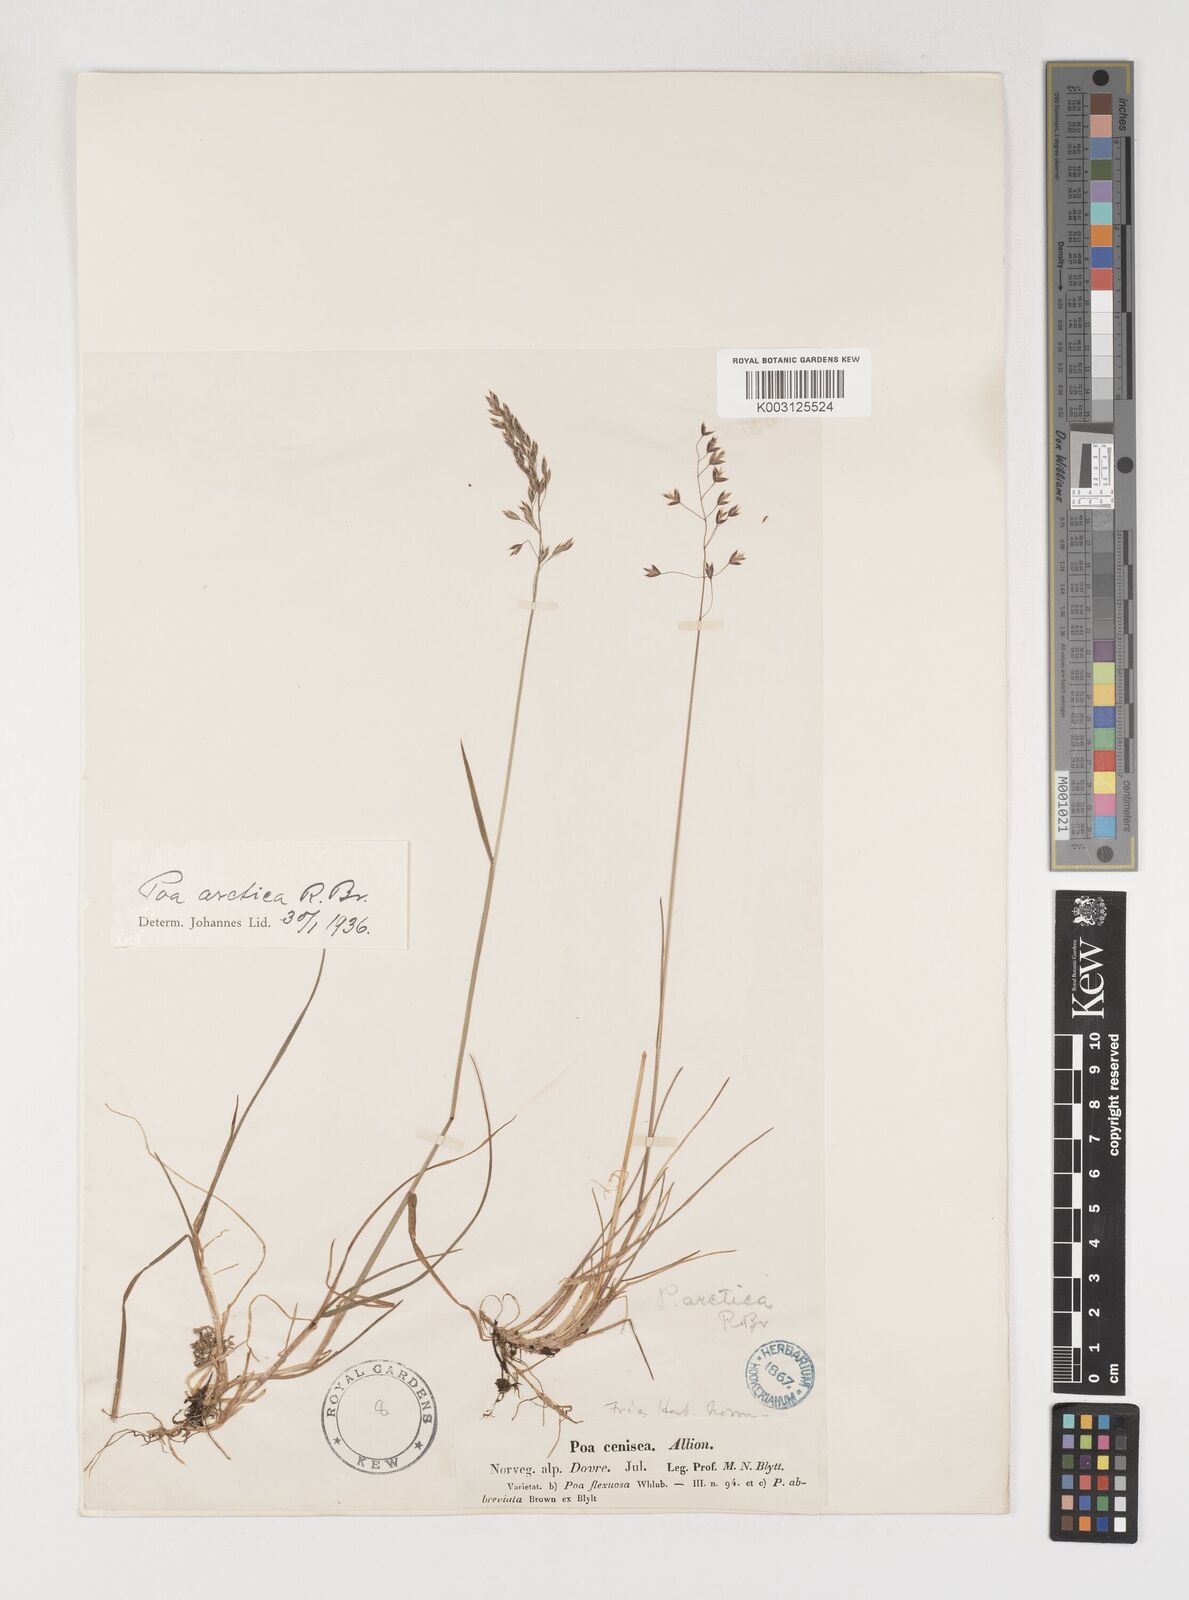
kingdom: Plantae
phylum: Tracheophyta
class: Liliopsida
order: Poales
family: Poaceae
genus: Poa
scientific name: Poa arctica
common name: Arctic bluegrass
